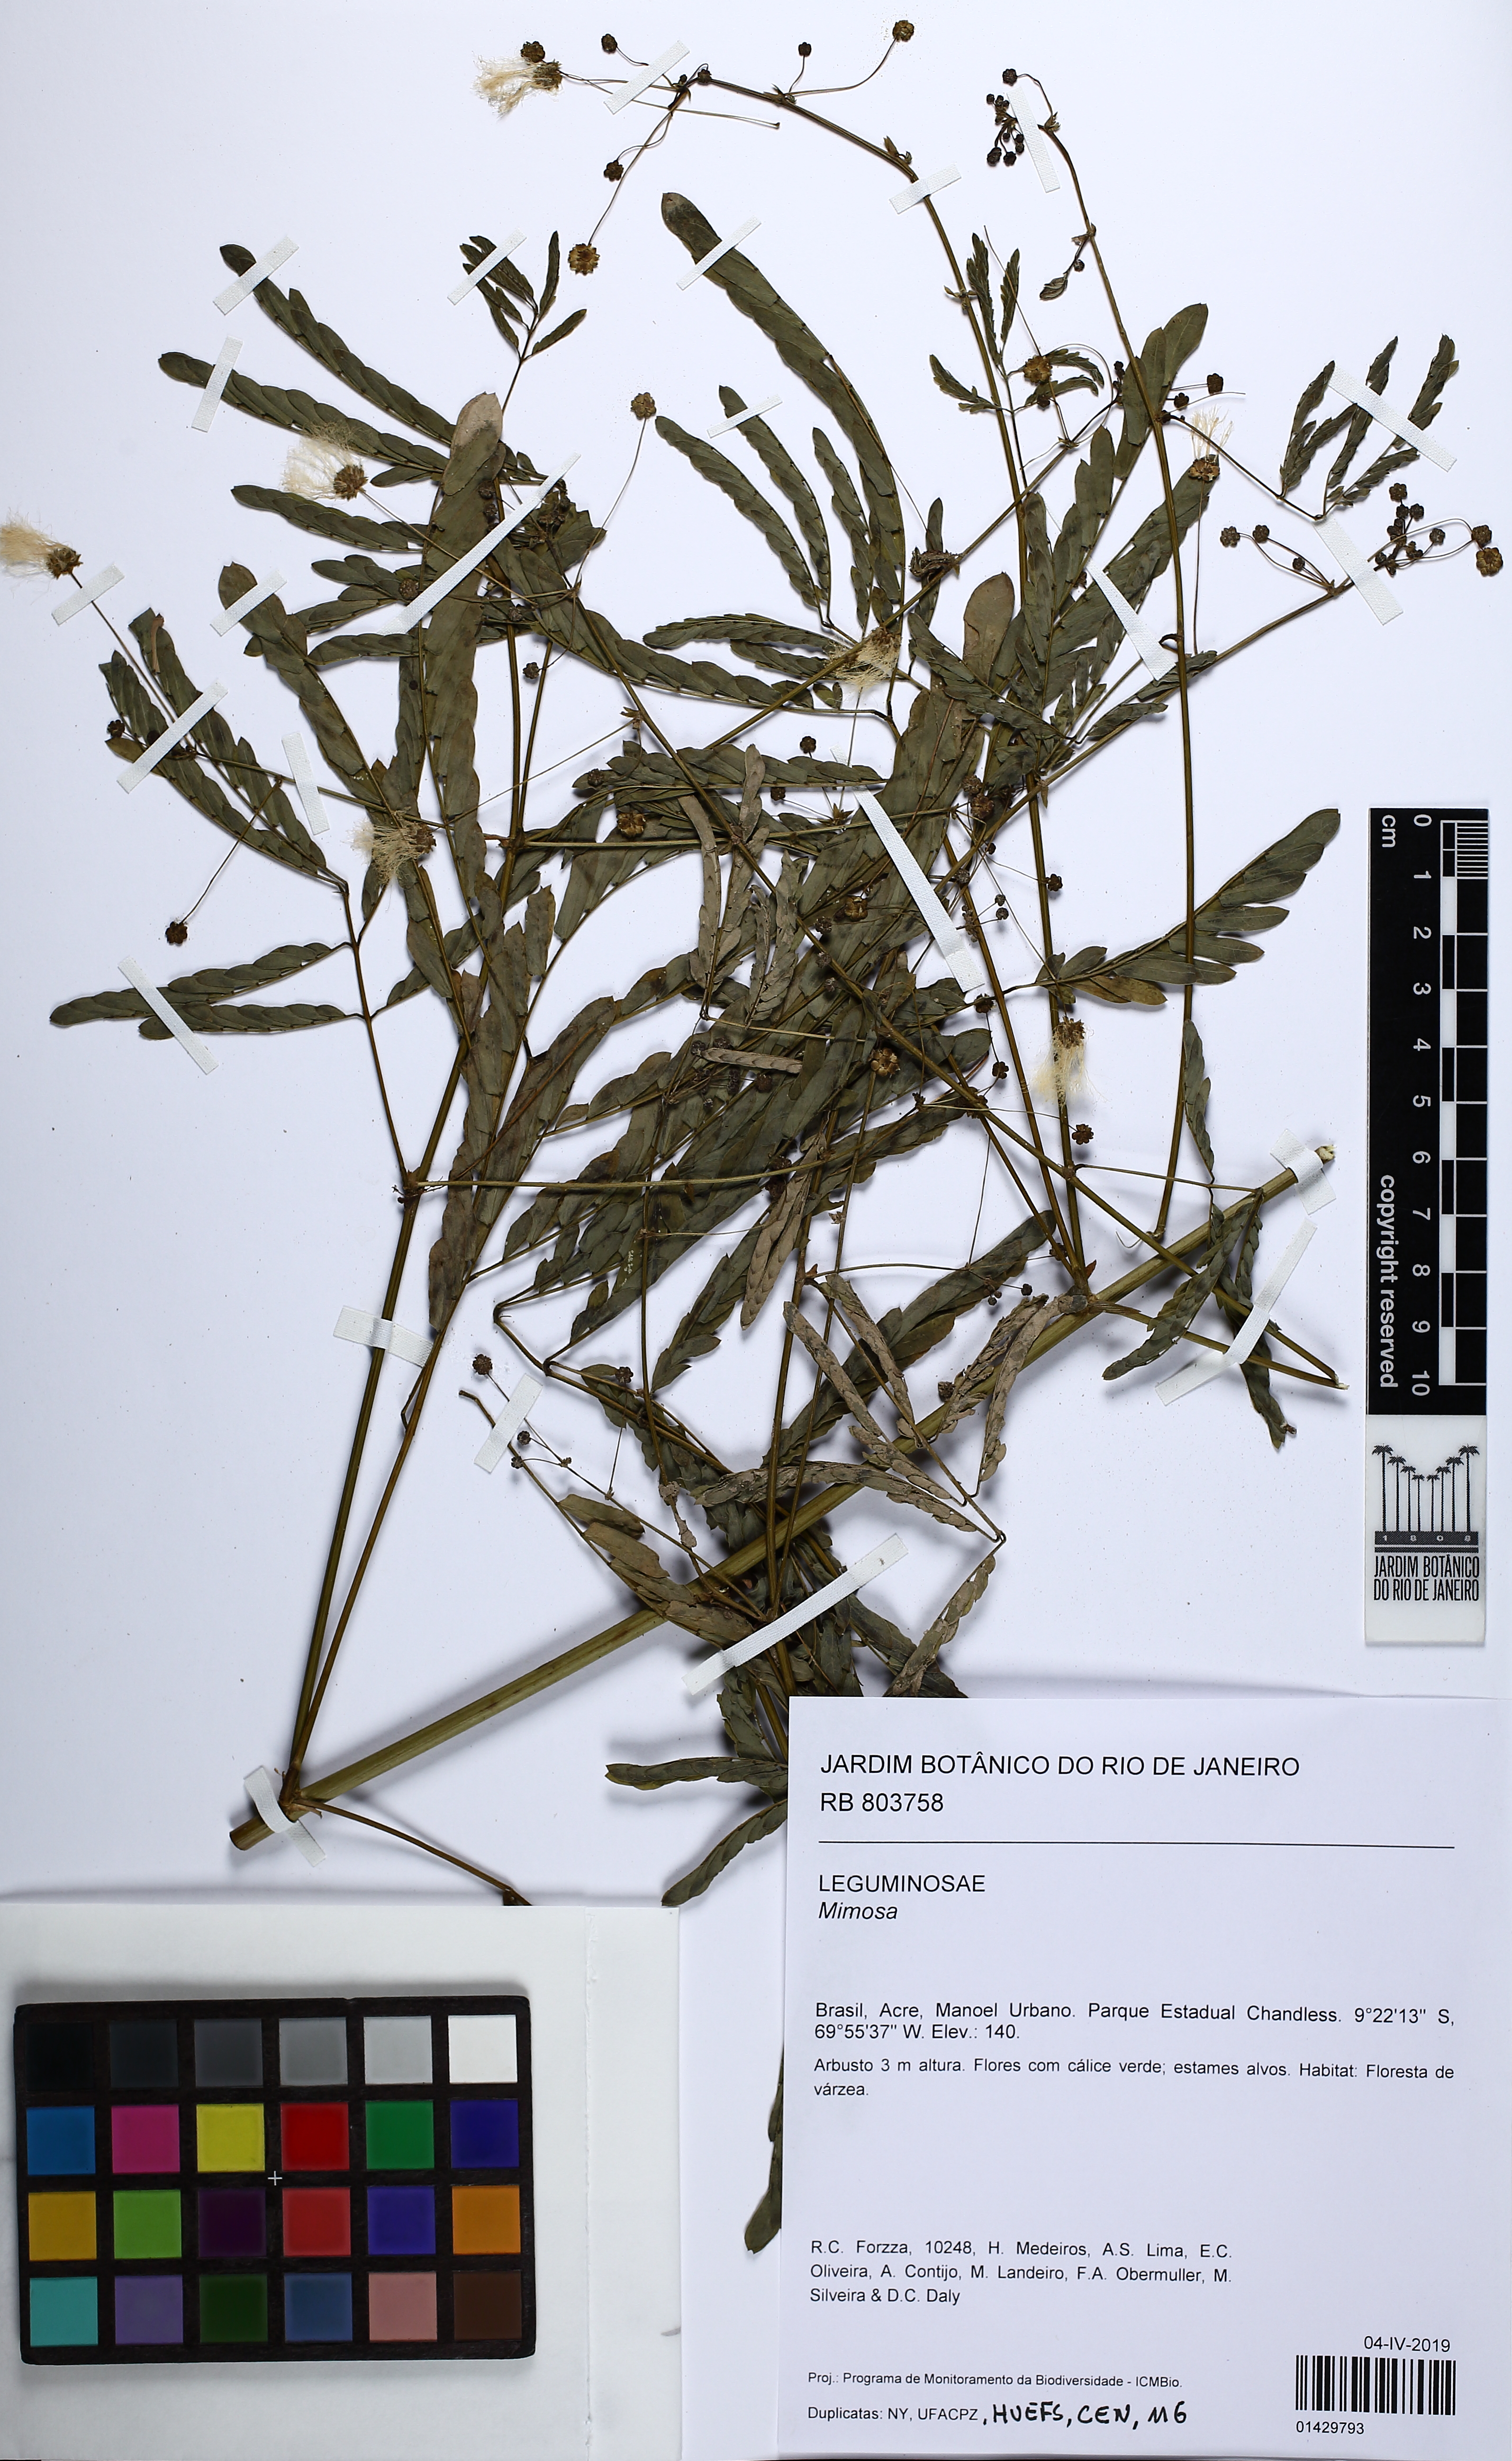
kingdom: Plantae
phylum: Tracheophyta
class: Magnoliopsida
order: Fabales
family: Fabaceae
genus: Mimosa
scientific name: Mimosa
